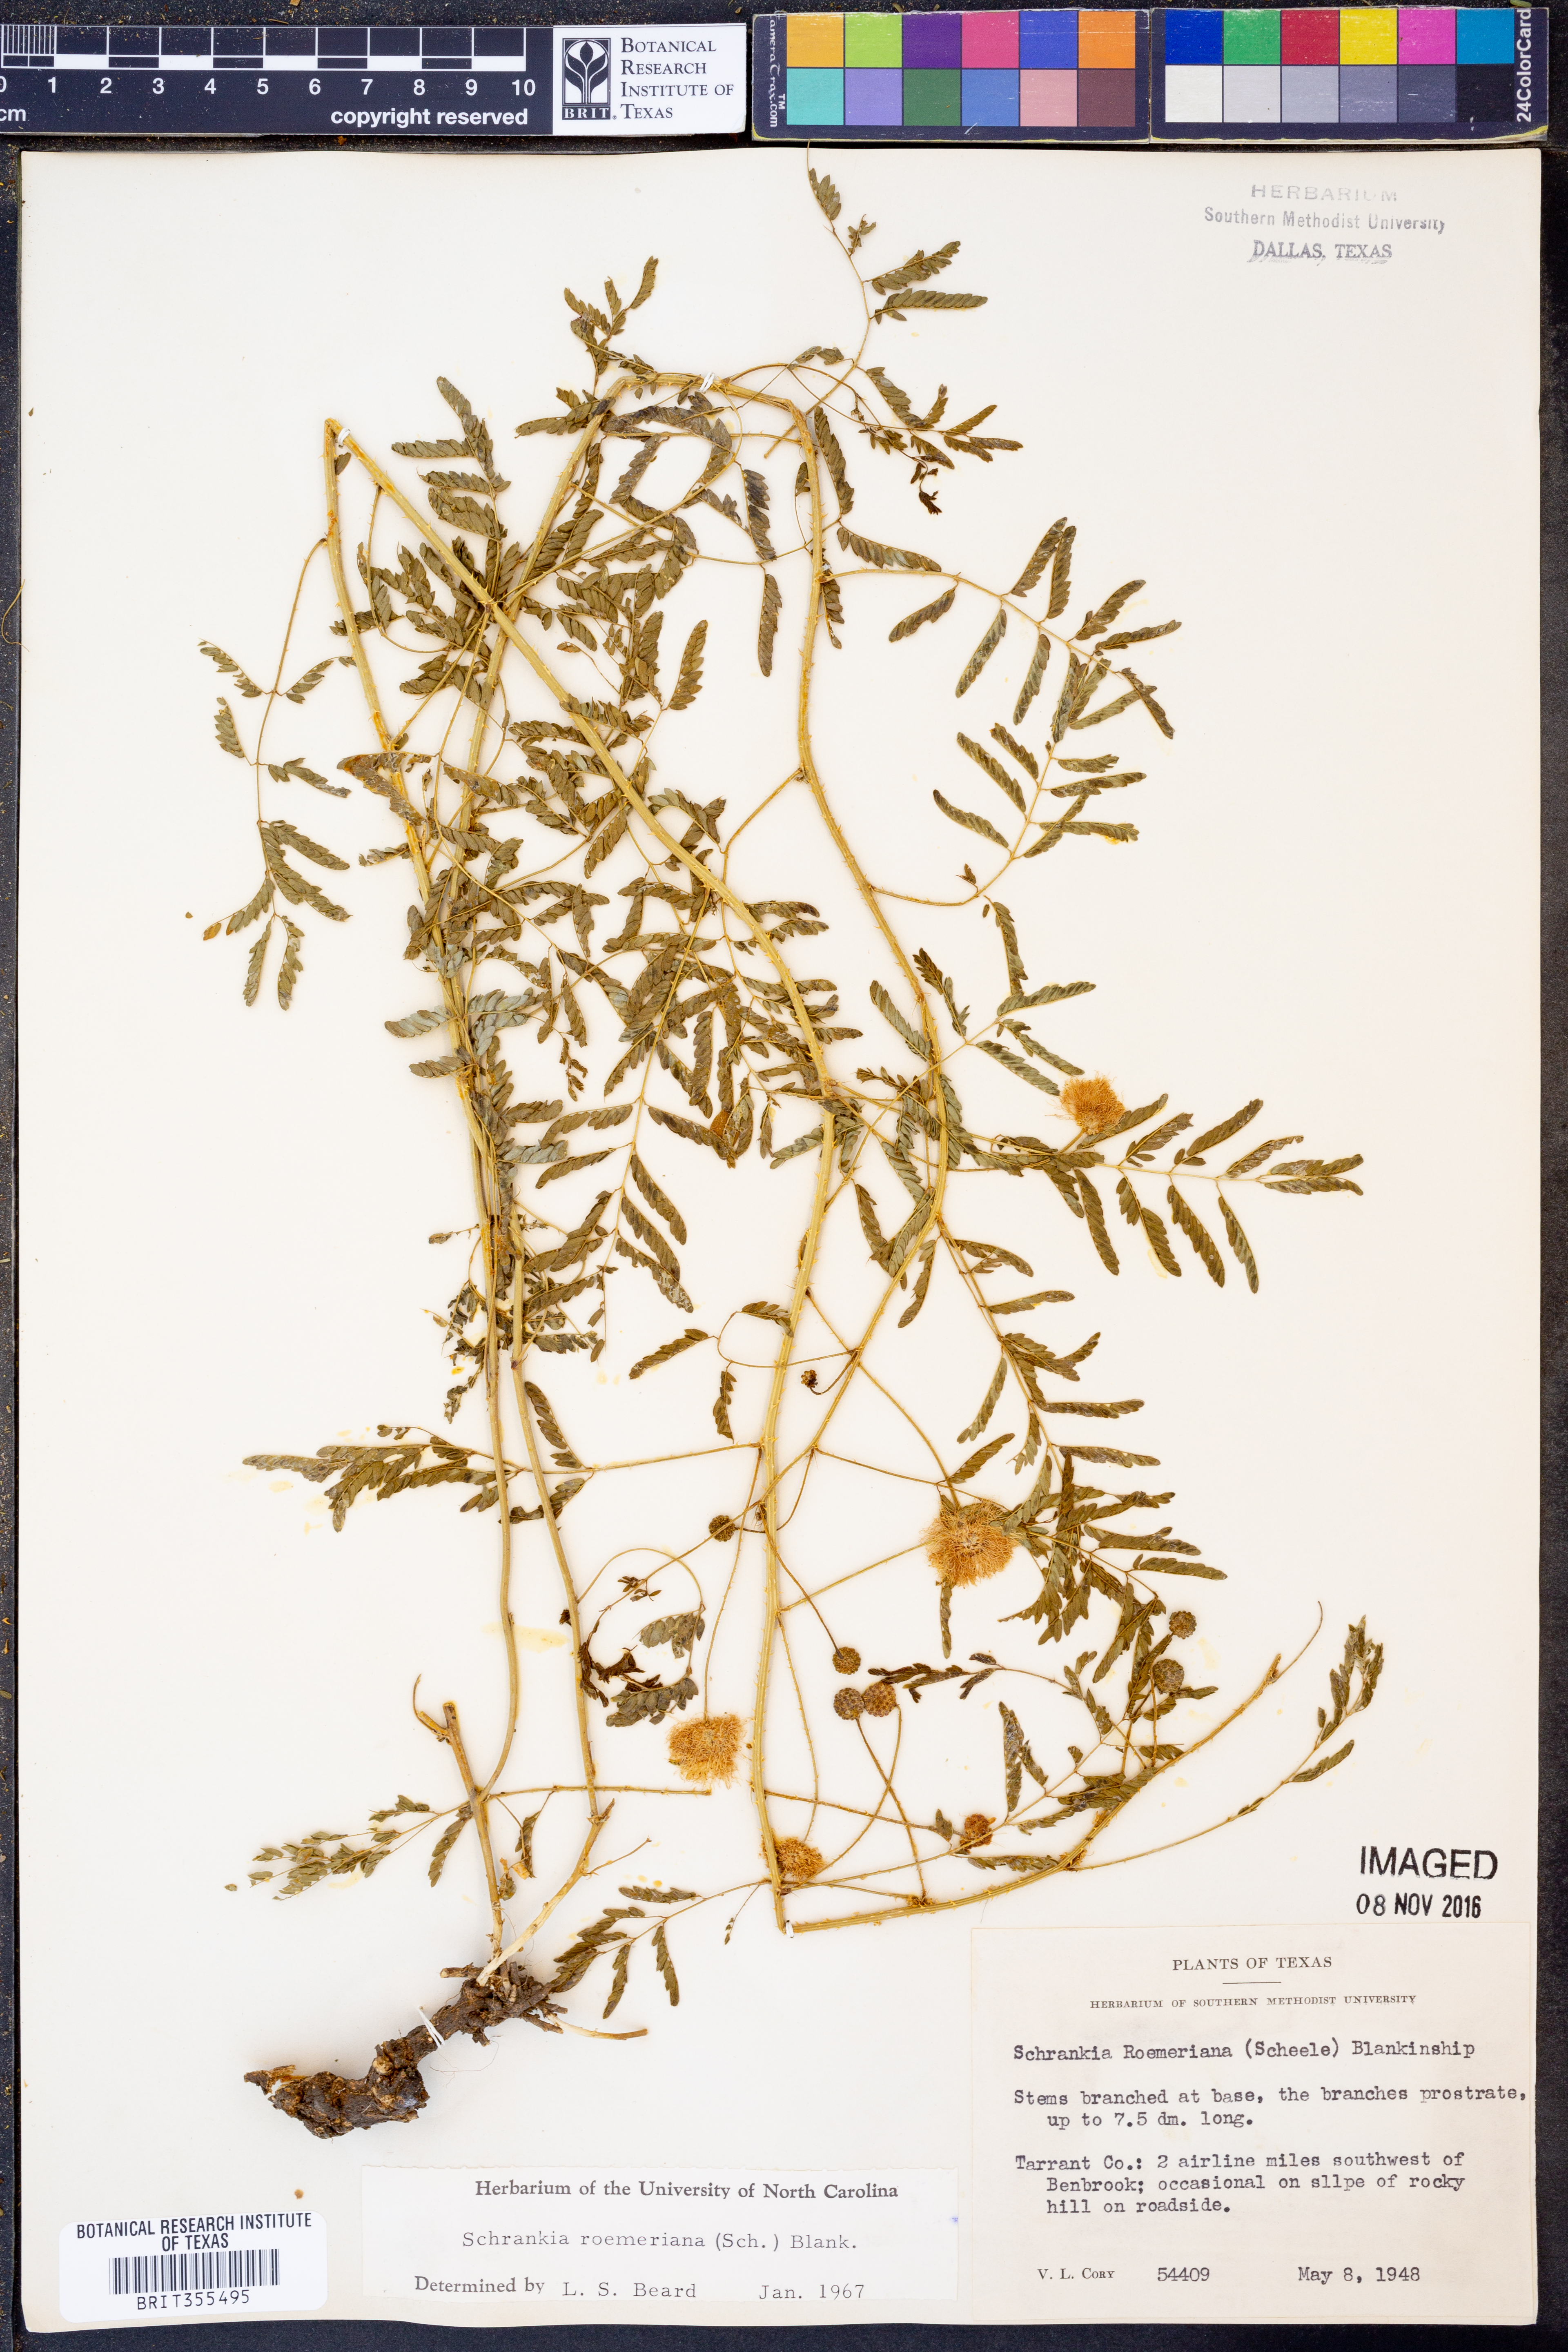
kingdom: Plantae
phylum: Tracheophyta
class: Magnoliopsida
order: Fabales
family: Fabaceae
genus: Mimosa
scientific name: Mimosa quadrivalvis
